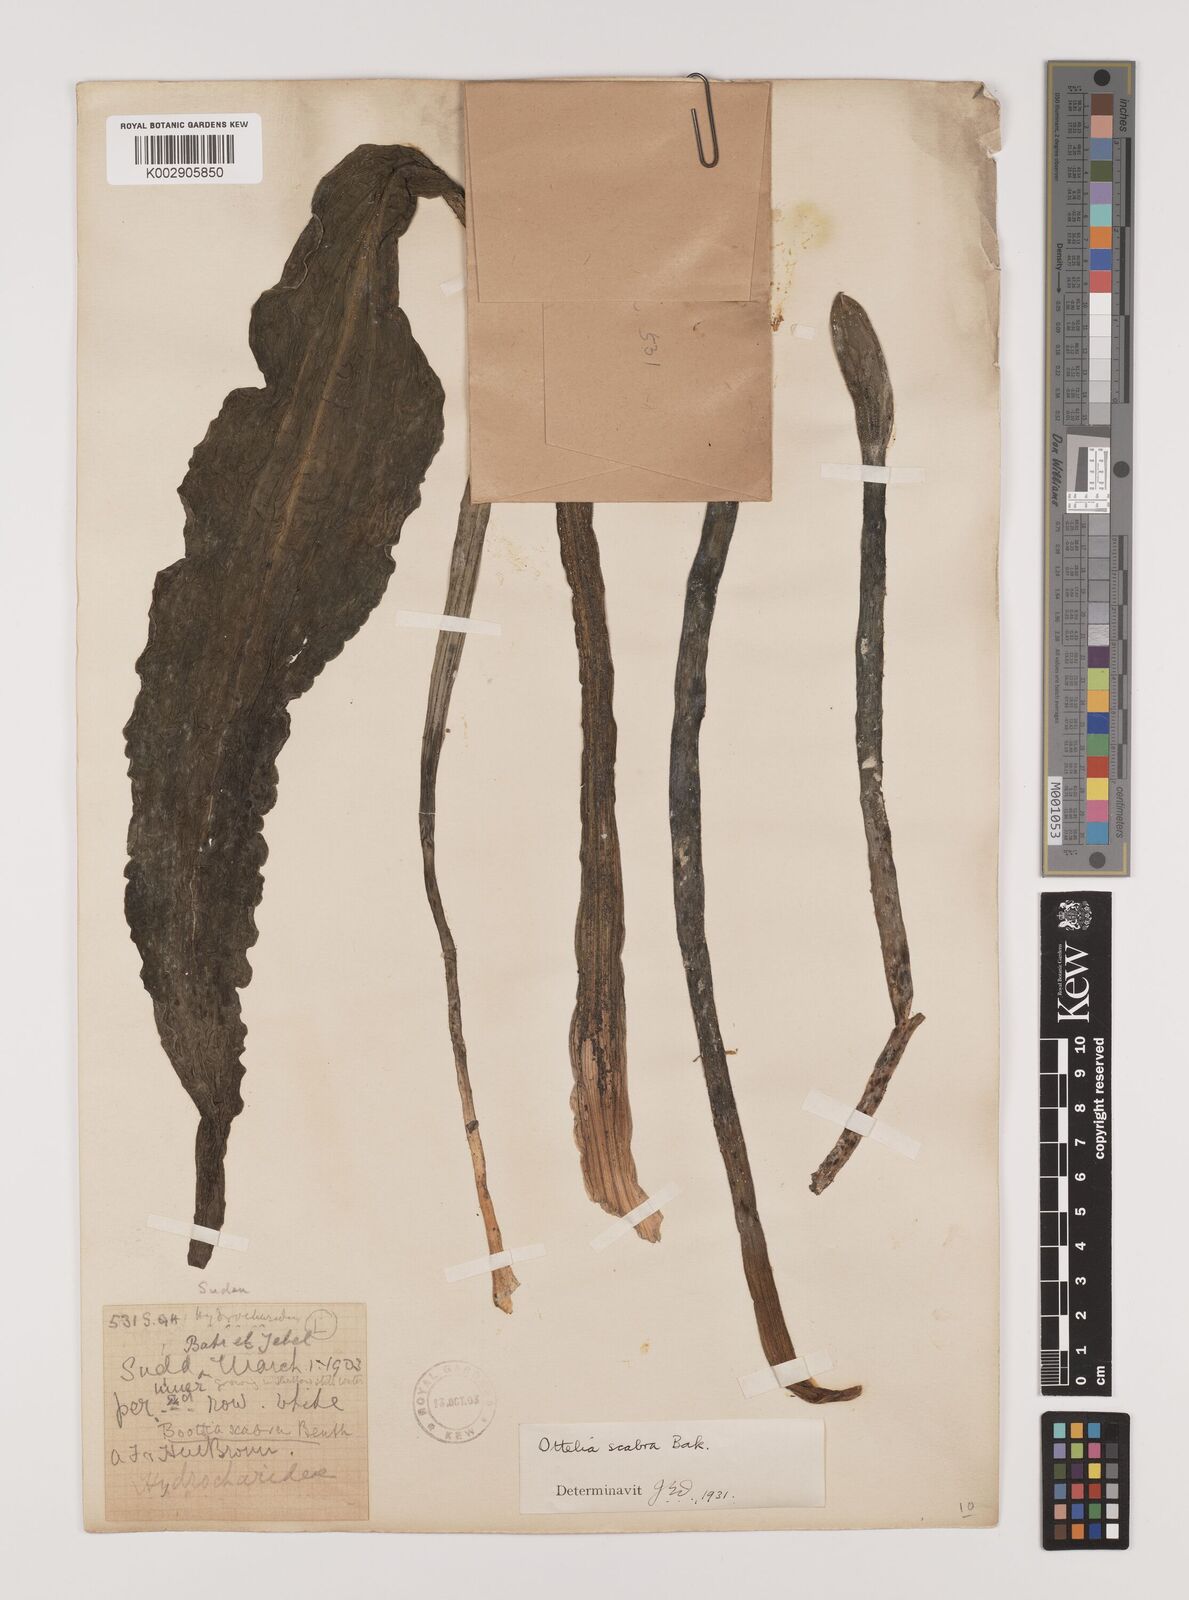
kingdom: Plantae
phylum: Tracheophyta
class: Liliopsida
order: Alismatales
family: Hydrocharitaceae
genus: Ottelia
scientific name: Ottelia scabra
